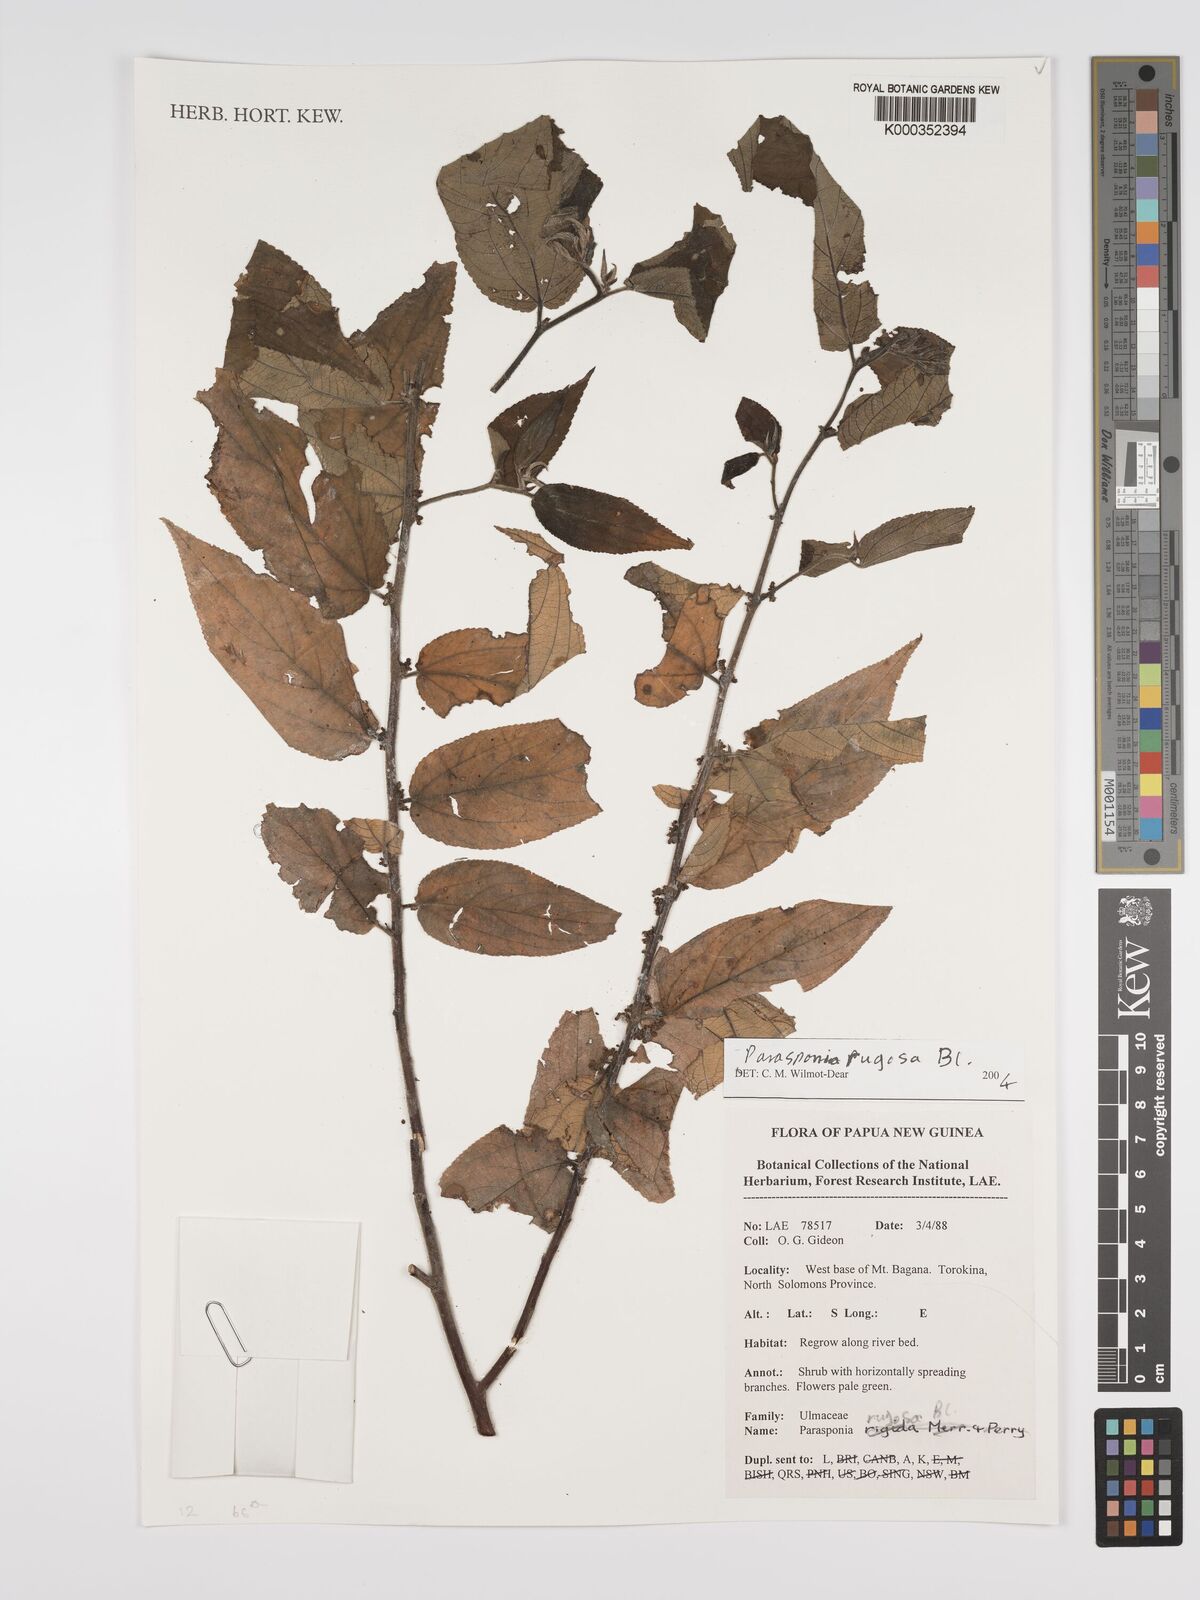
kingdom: Plantae
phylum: Tracheophyta
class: Magnoliopsida
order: Rosales
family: Cannabaceae
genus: Trema
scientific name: Trema eurhynchum
